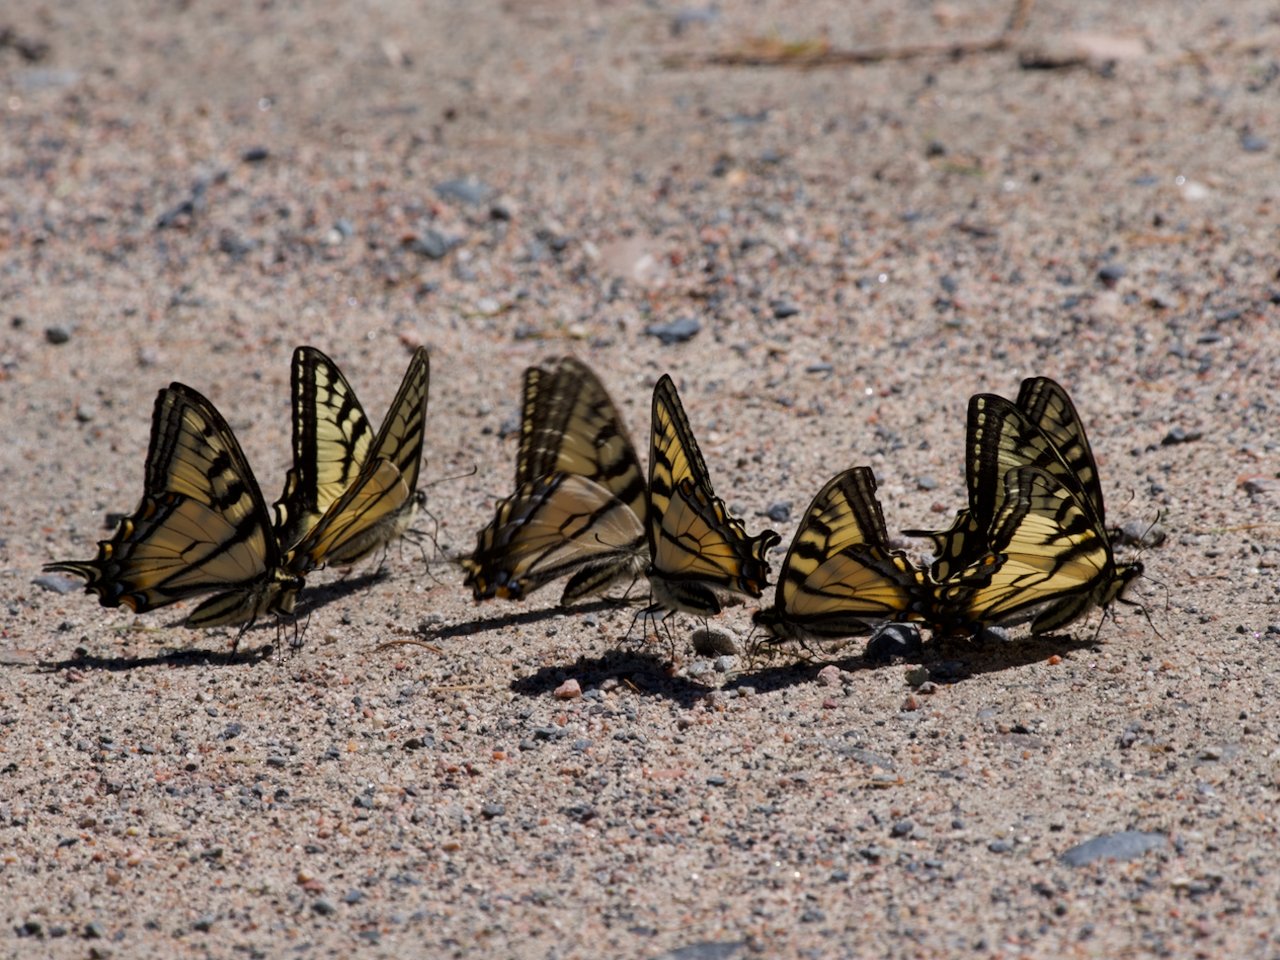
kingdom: Animalia
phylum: Arthropoda
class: Insecta
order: Lepidoptera
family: Papilionidae
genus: Pterourus
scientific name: Pterourus canadensis
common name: Canadian Tiger Swallowtail
